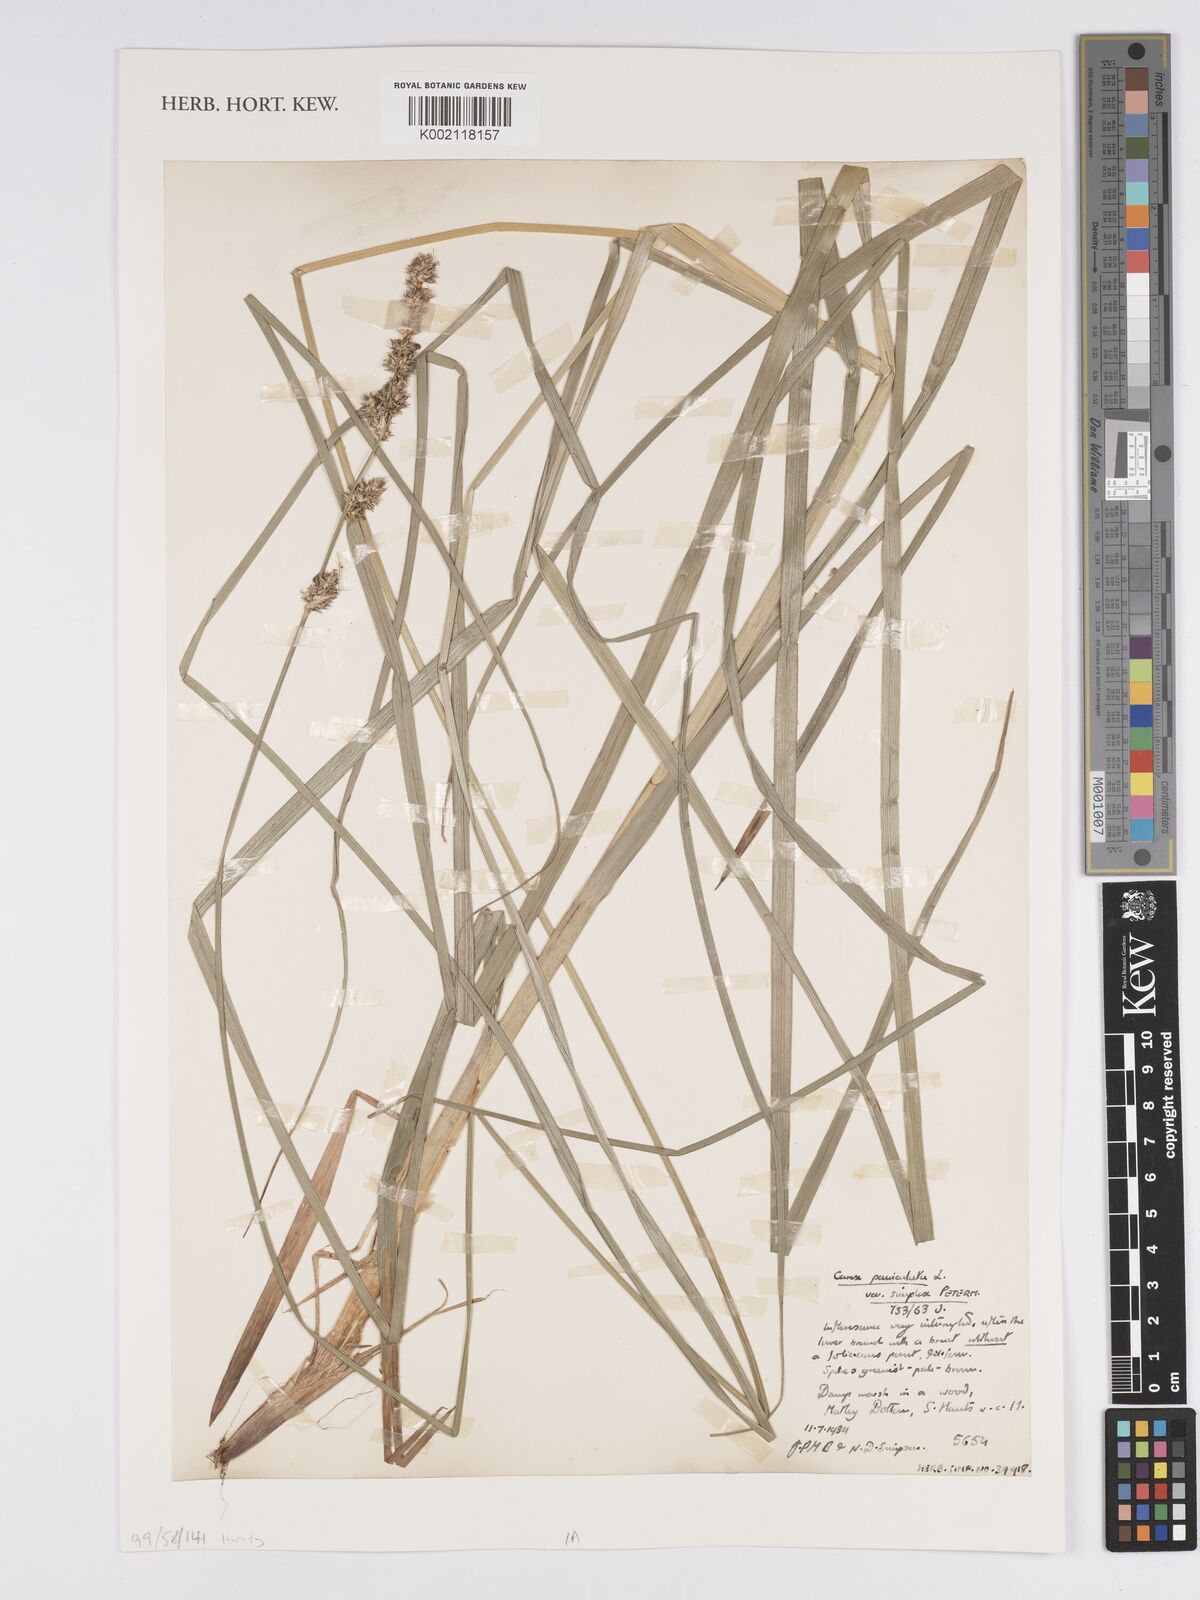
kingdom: Plantae
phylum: Tracheophyta
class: Liliopsida
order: Poales
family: Cyperaceae
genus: Carex
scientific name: Carex paniculata
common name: Greater tussock-sedge
